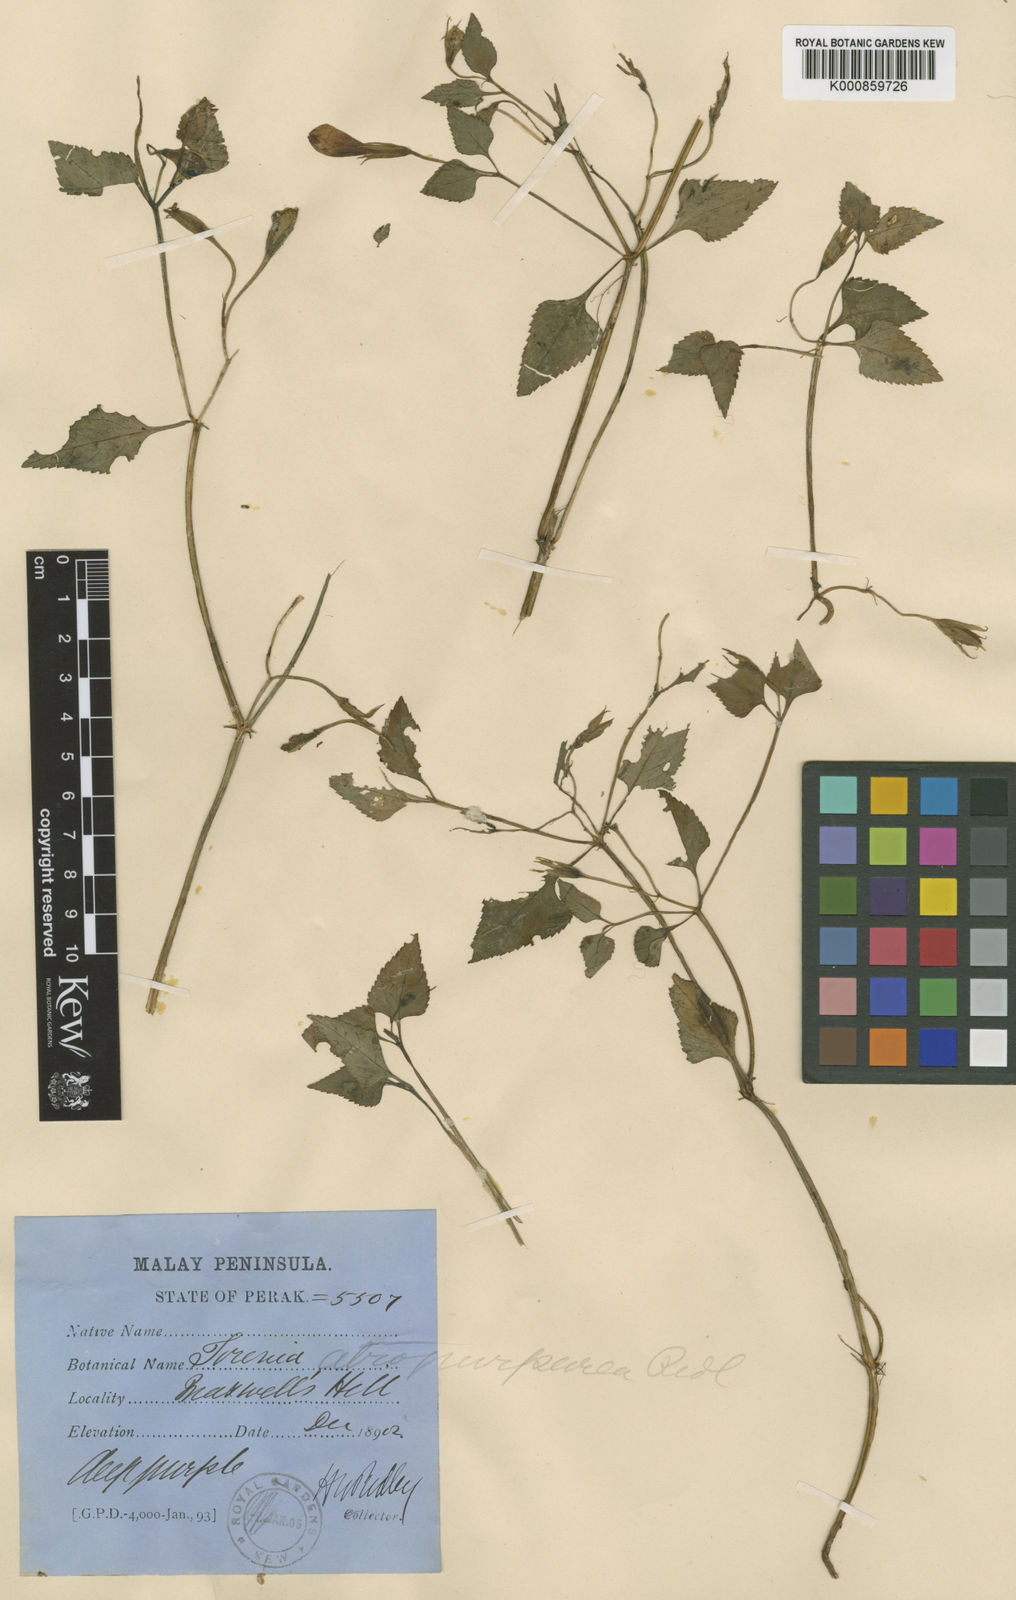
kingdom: Plantae
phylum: Tracheophyta
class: Magnoliopsida
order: Lamiales
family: Linderniaceae
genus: Schizotorenia
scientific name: Schizotorenia atropurpurea
